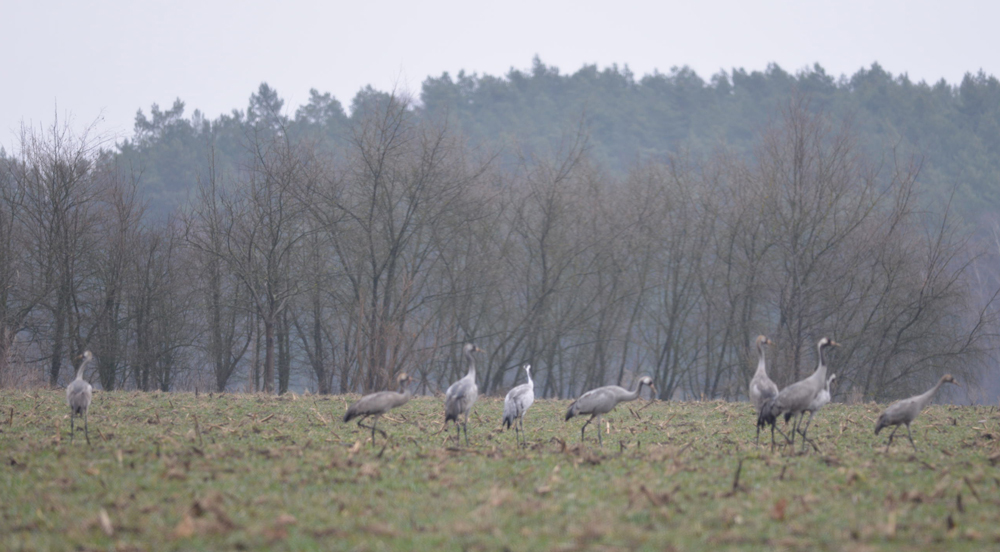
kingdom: Animalia
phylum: Chordata
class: Aves
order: Gruiformes
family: Gruidae
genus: Grus
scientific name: Grus grus
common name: Common crane
